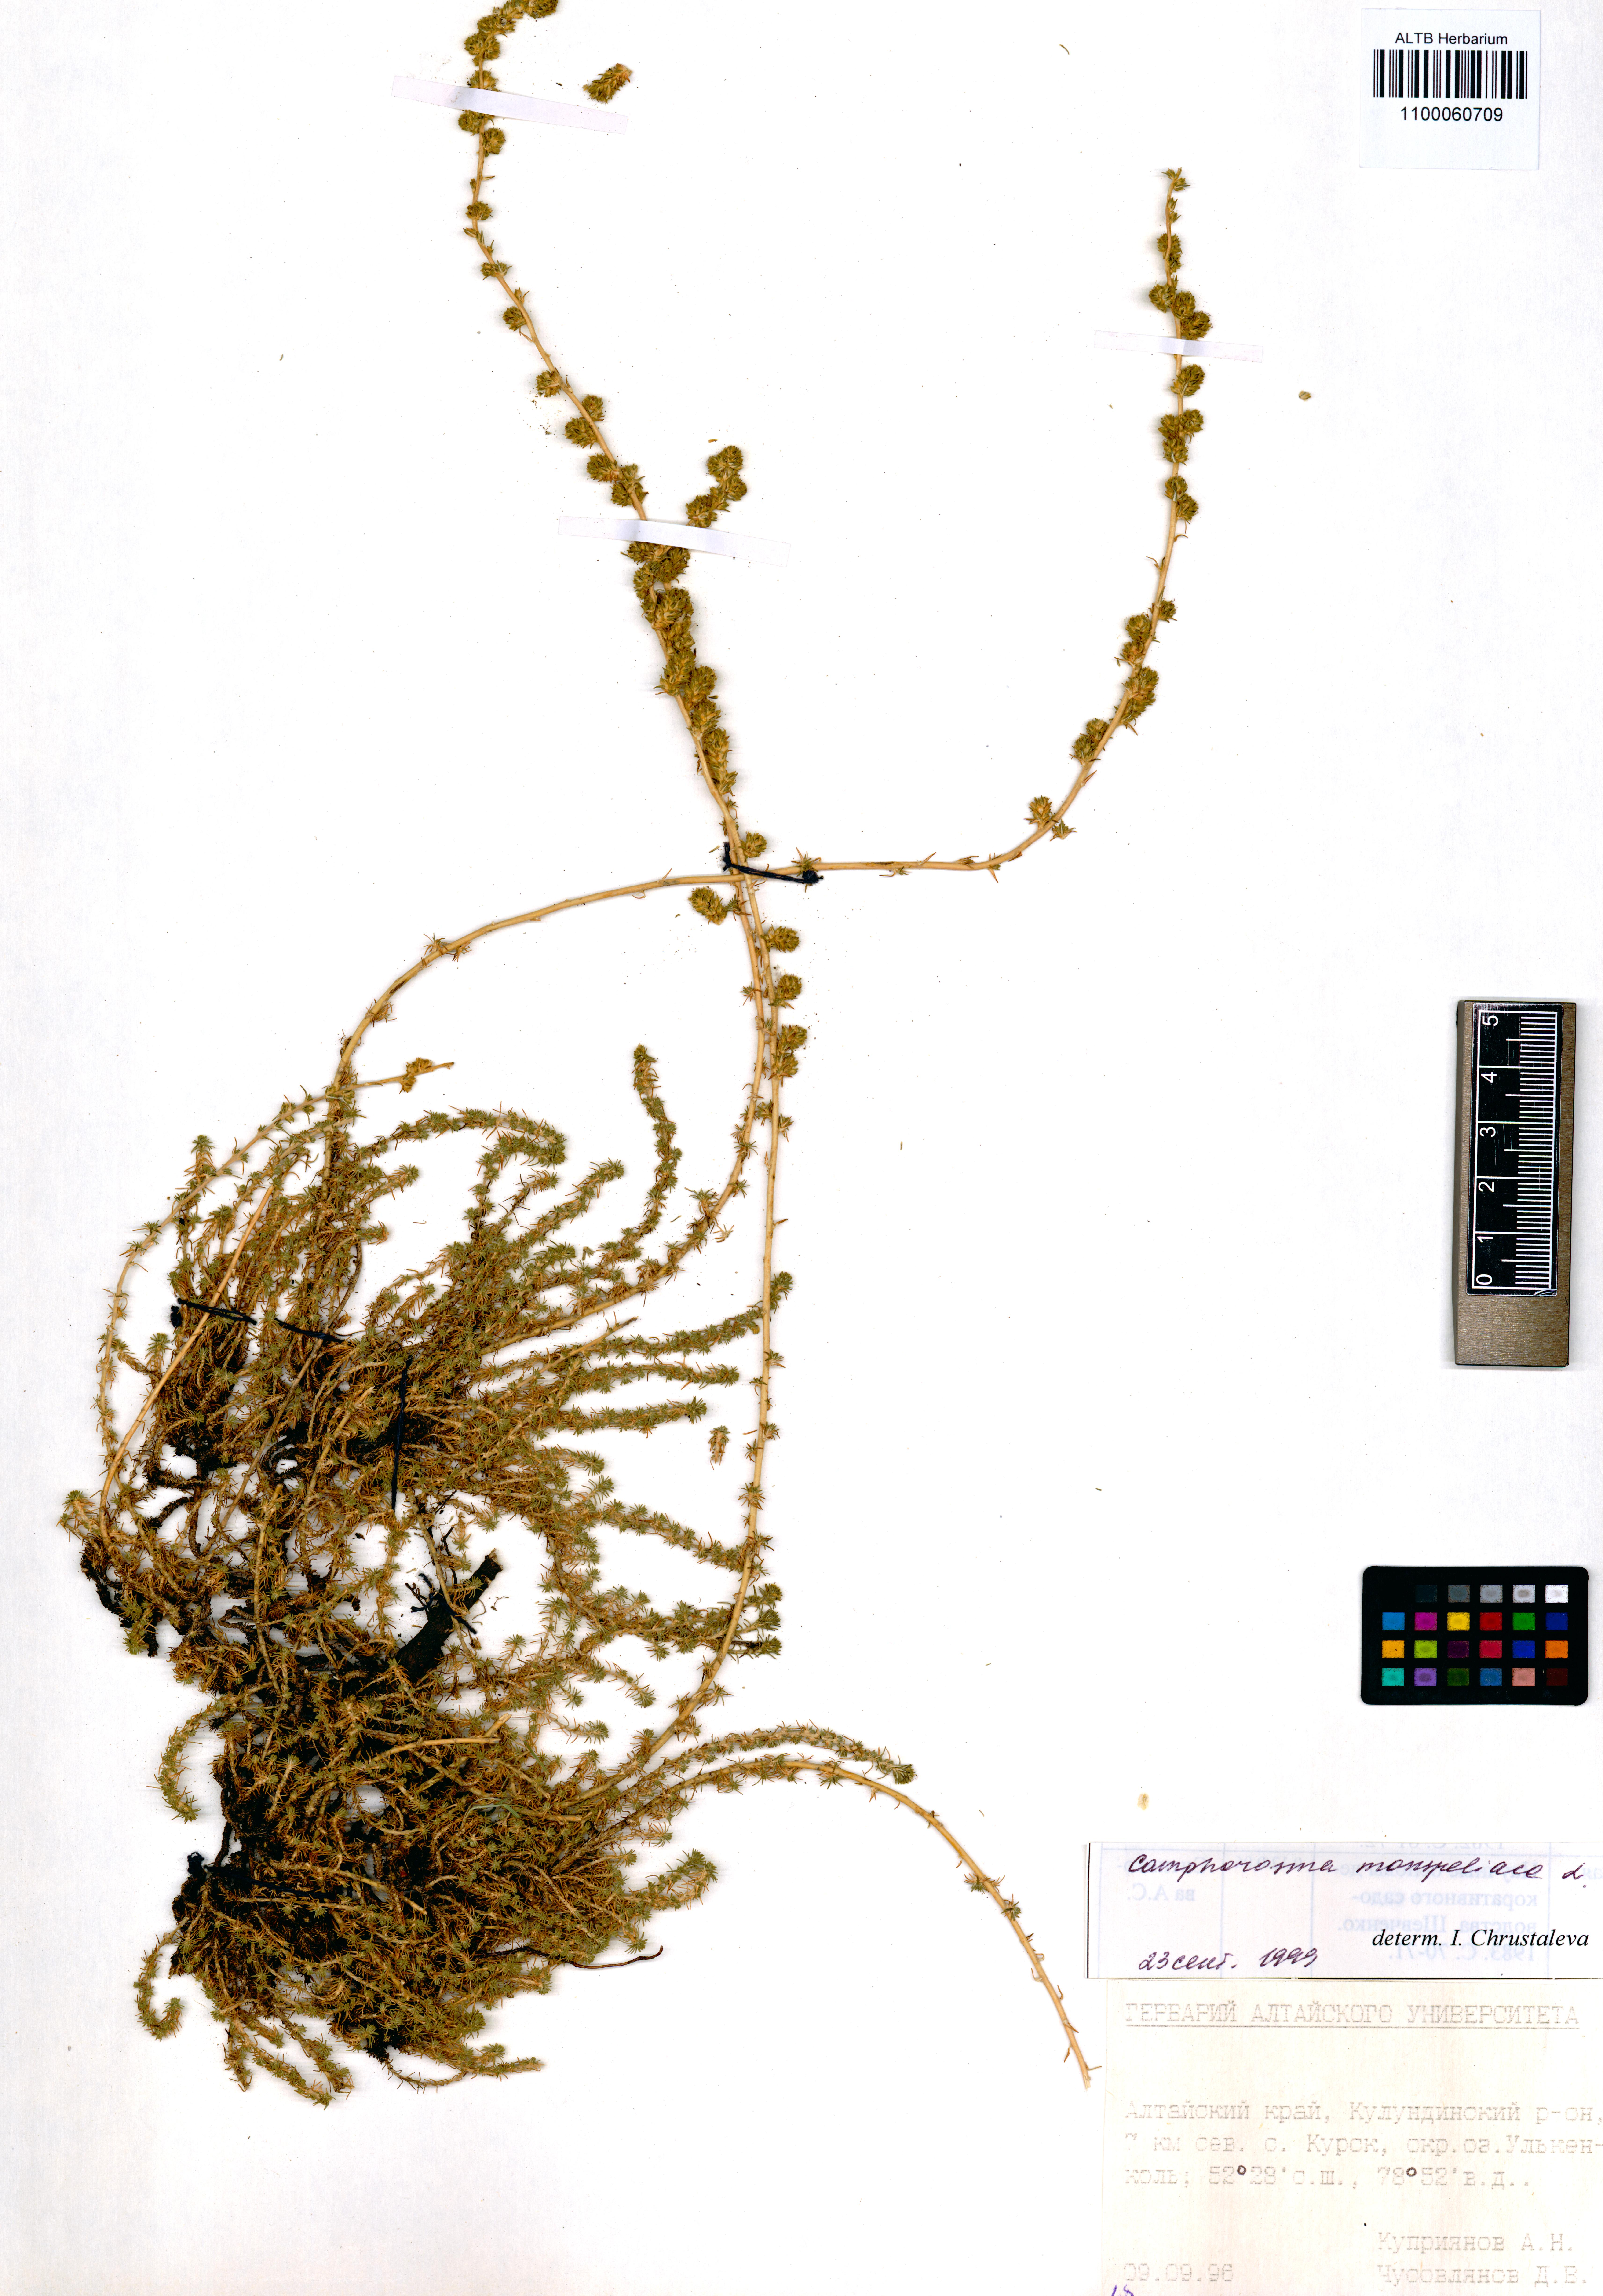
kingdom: Plantae
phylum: Tracheophyta
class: Magnoliopsida
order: Caryophyllales
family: Amaranthaceae
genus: Camphorosma
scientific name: Camphorosma monspeliaca
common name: Camphorfume
